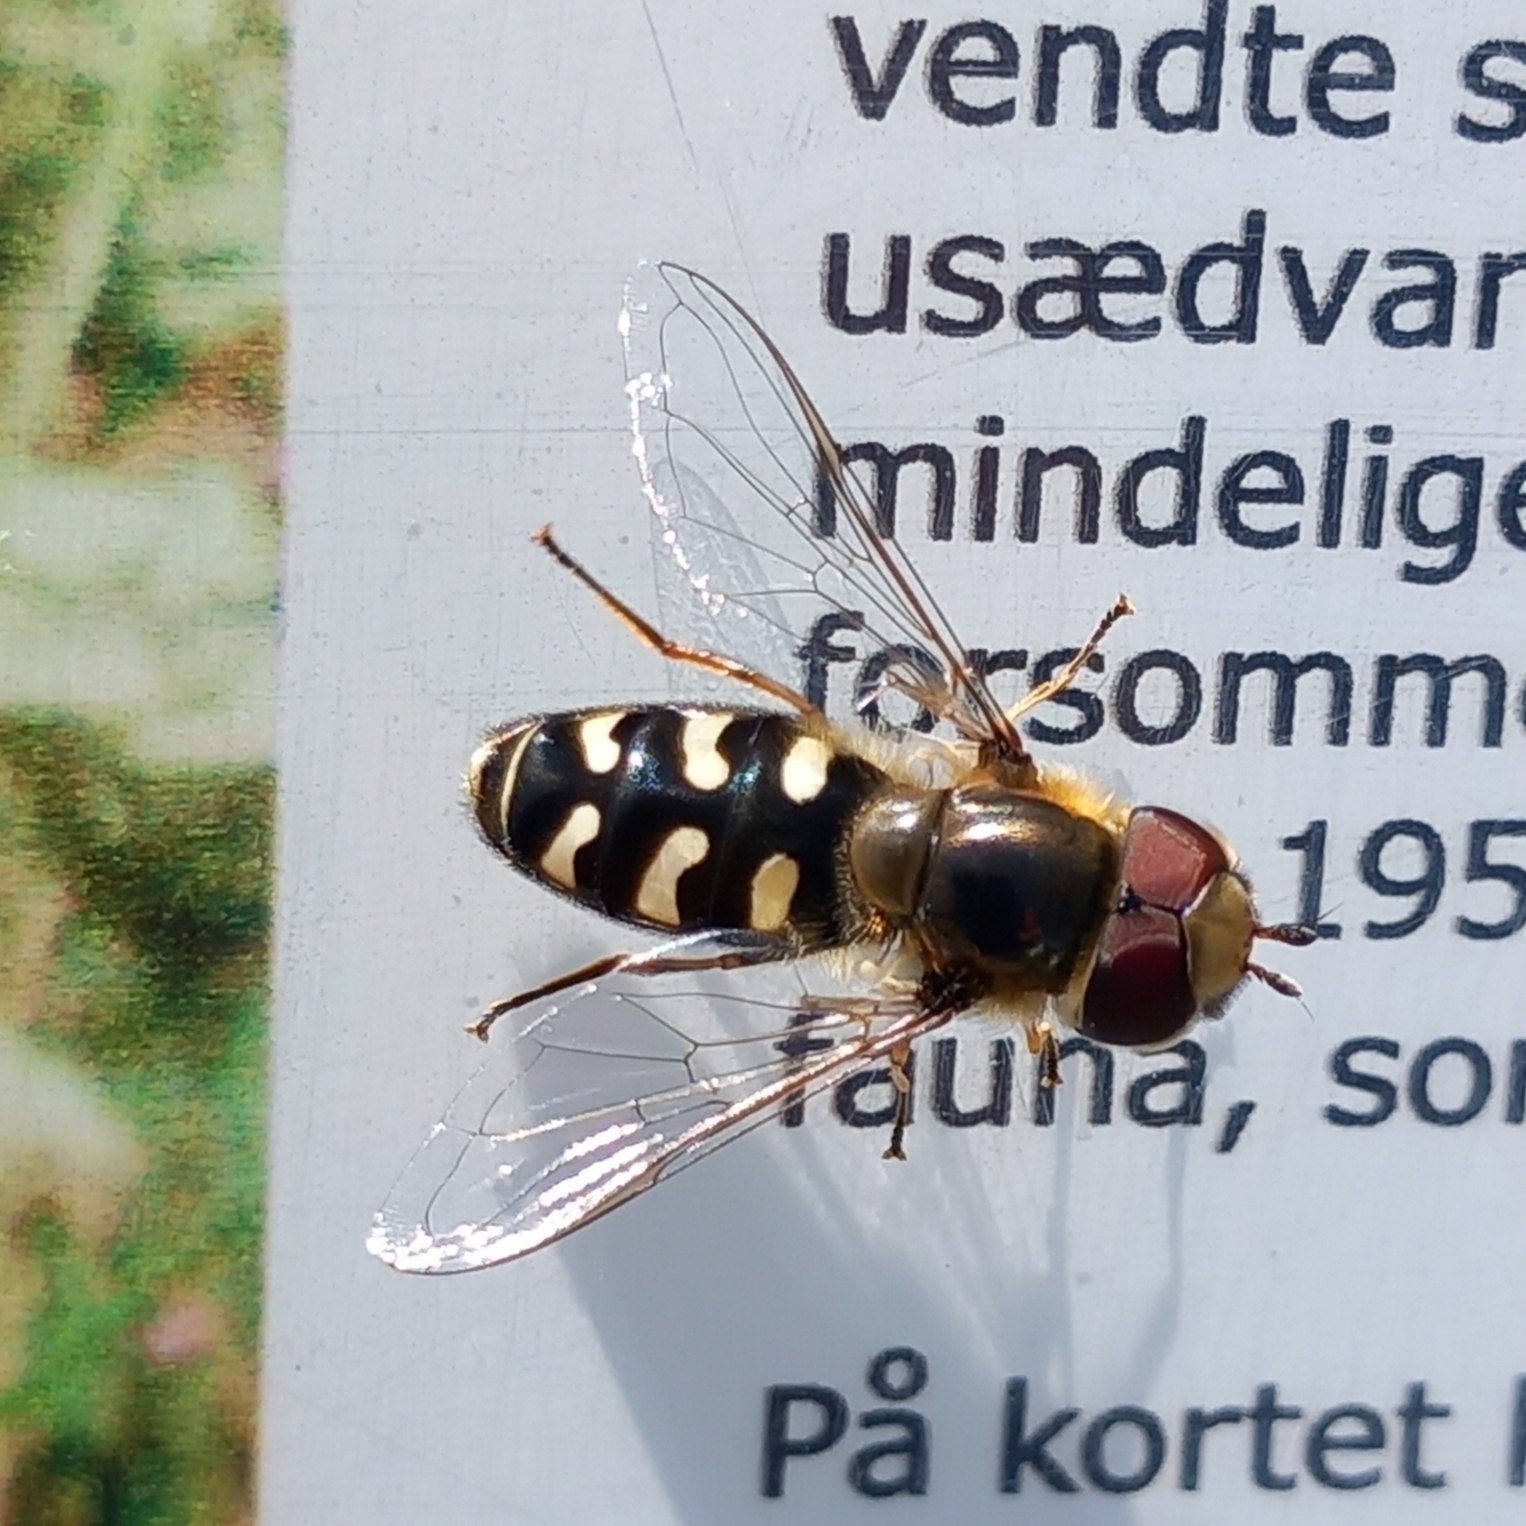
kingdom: Animalia
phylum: Arthropoda
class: Insecta
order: Diptera
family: Syrphidae
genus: Scaeva
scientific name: Scaeva pyrastri
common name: Hvidplettet agersvirreflue
